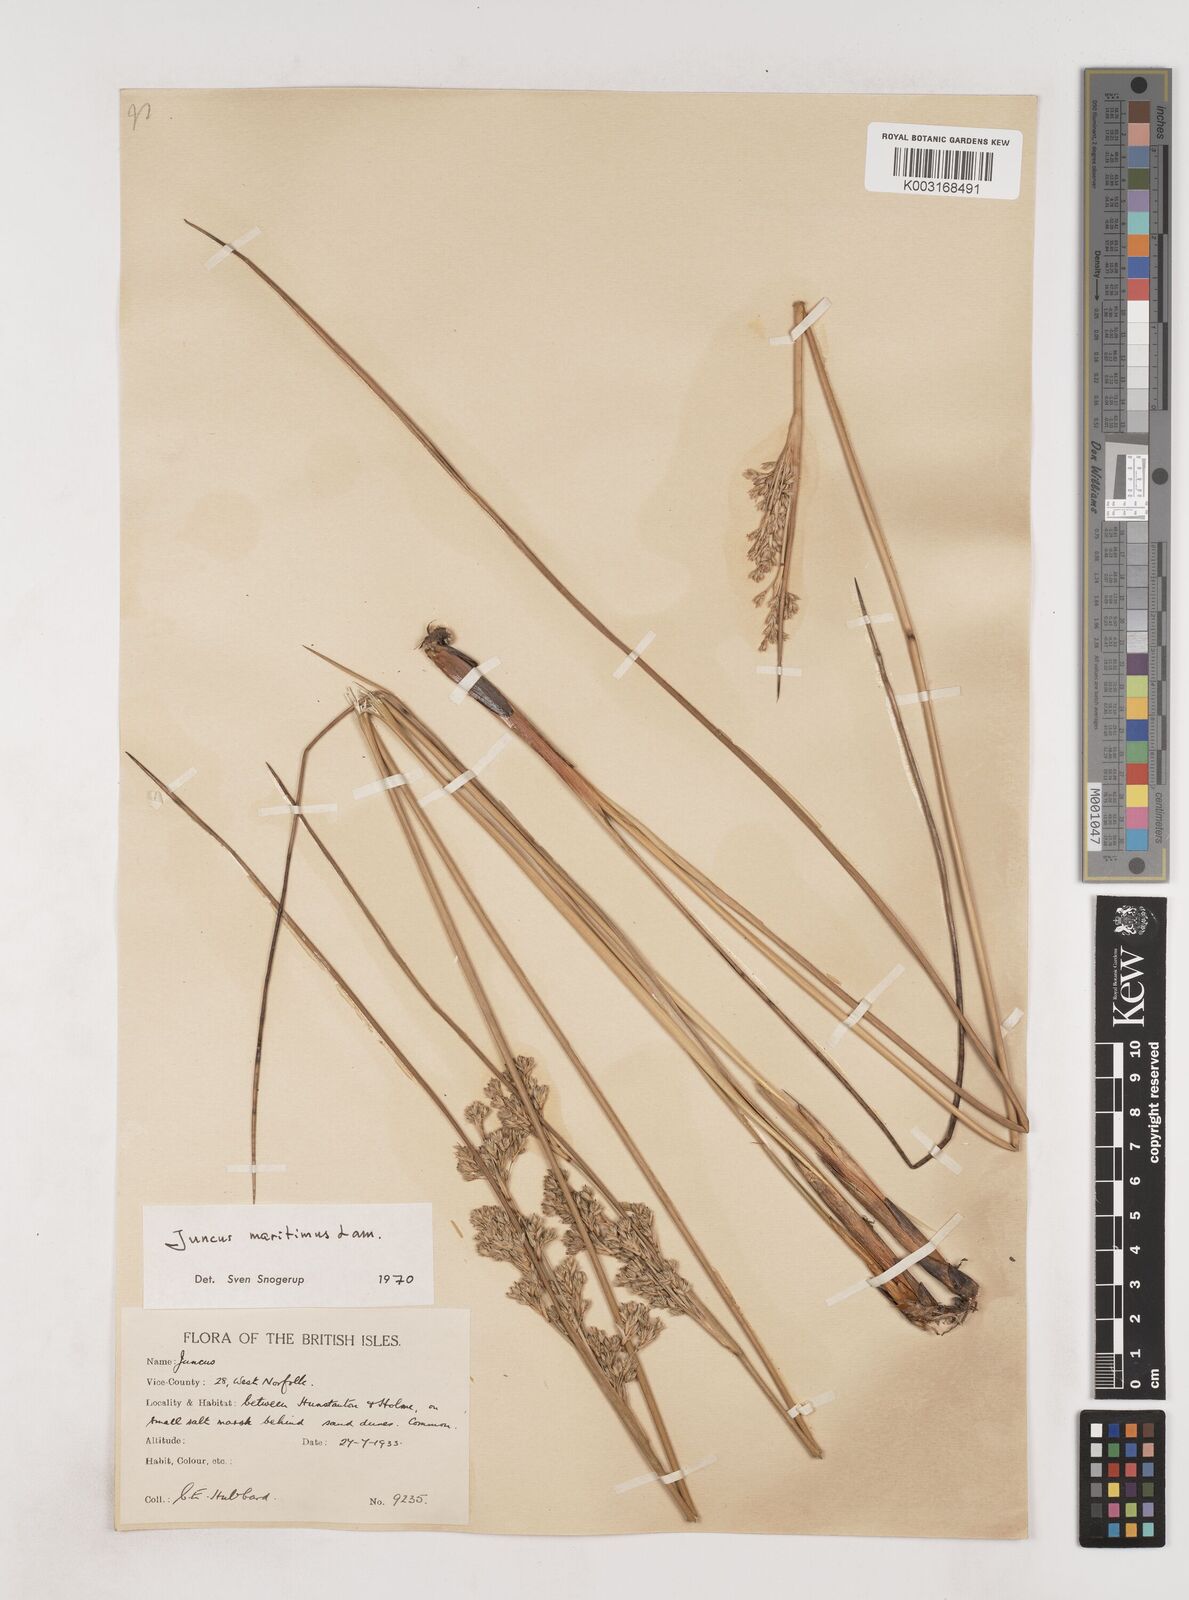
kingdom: Plantae
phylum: Tracheophyta
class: Liliopsida
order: Poales
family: Juncaceae
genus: Juncus
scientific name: Juncus maritimus
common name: Sea rush
